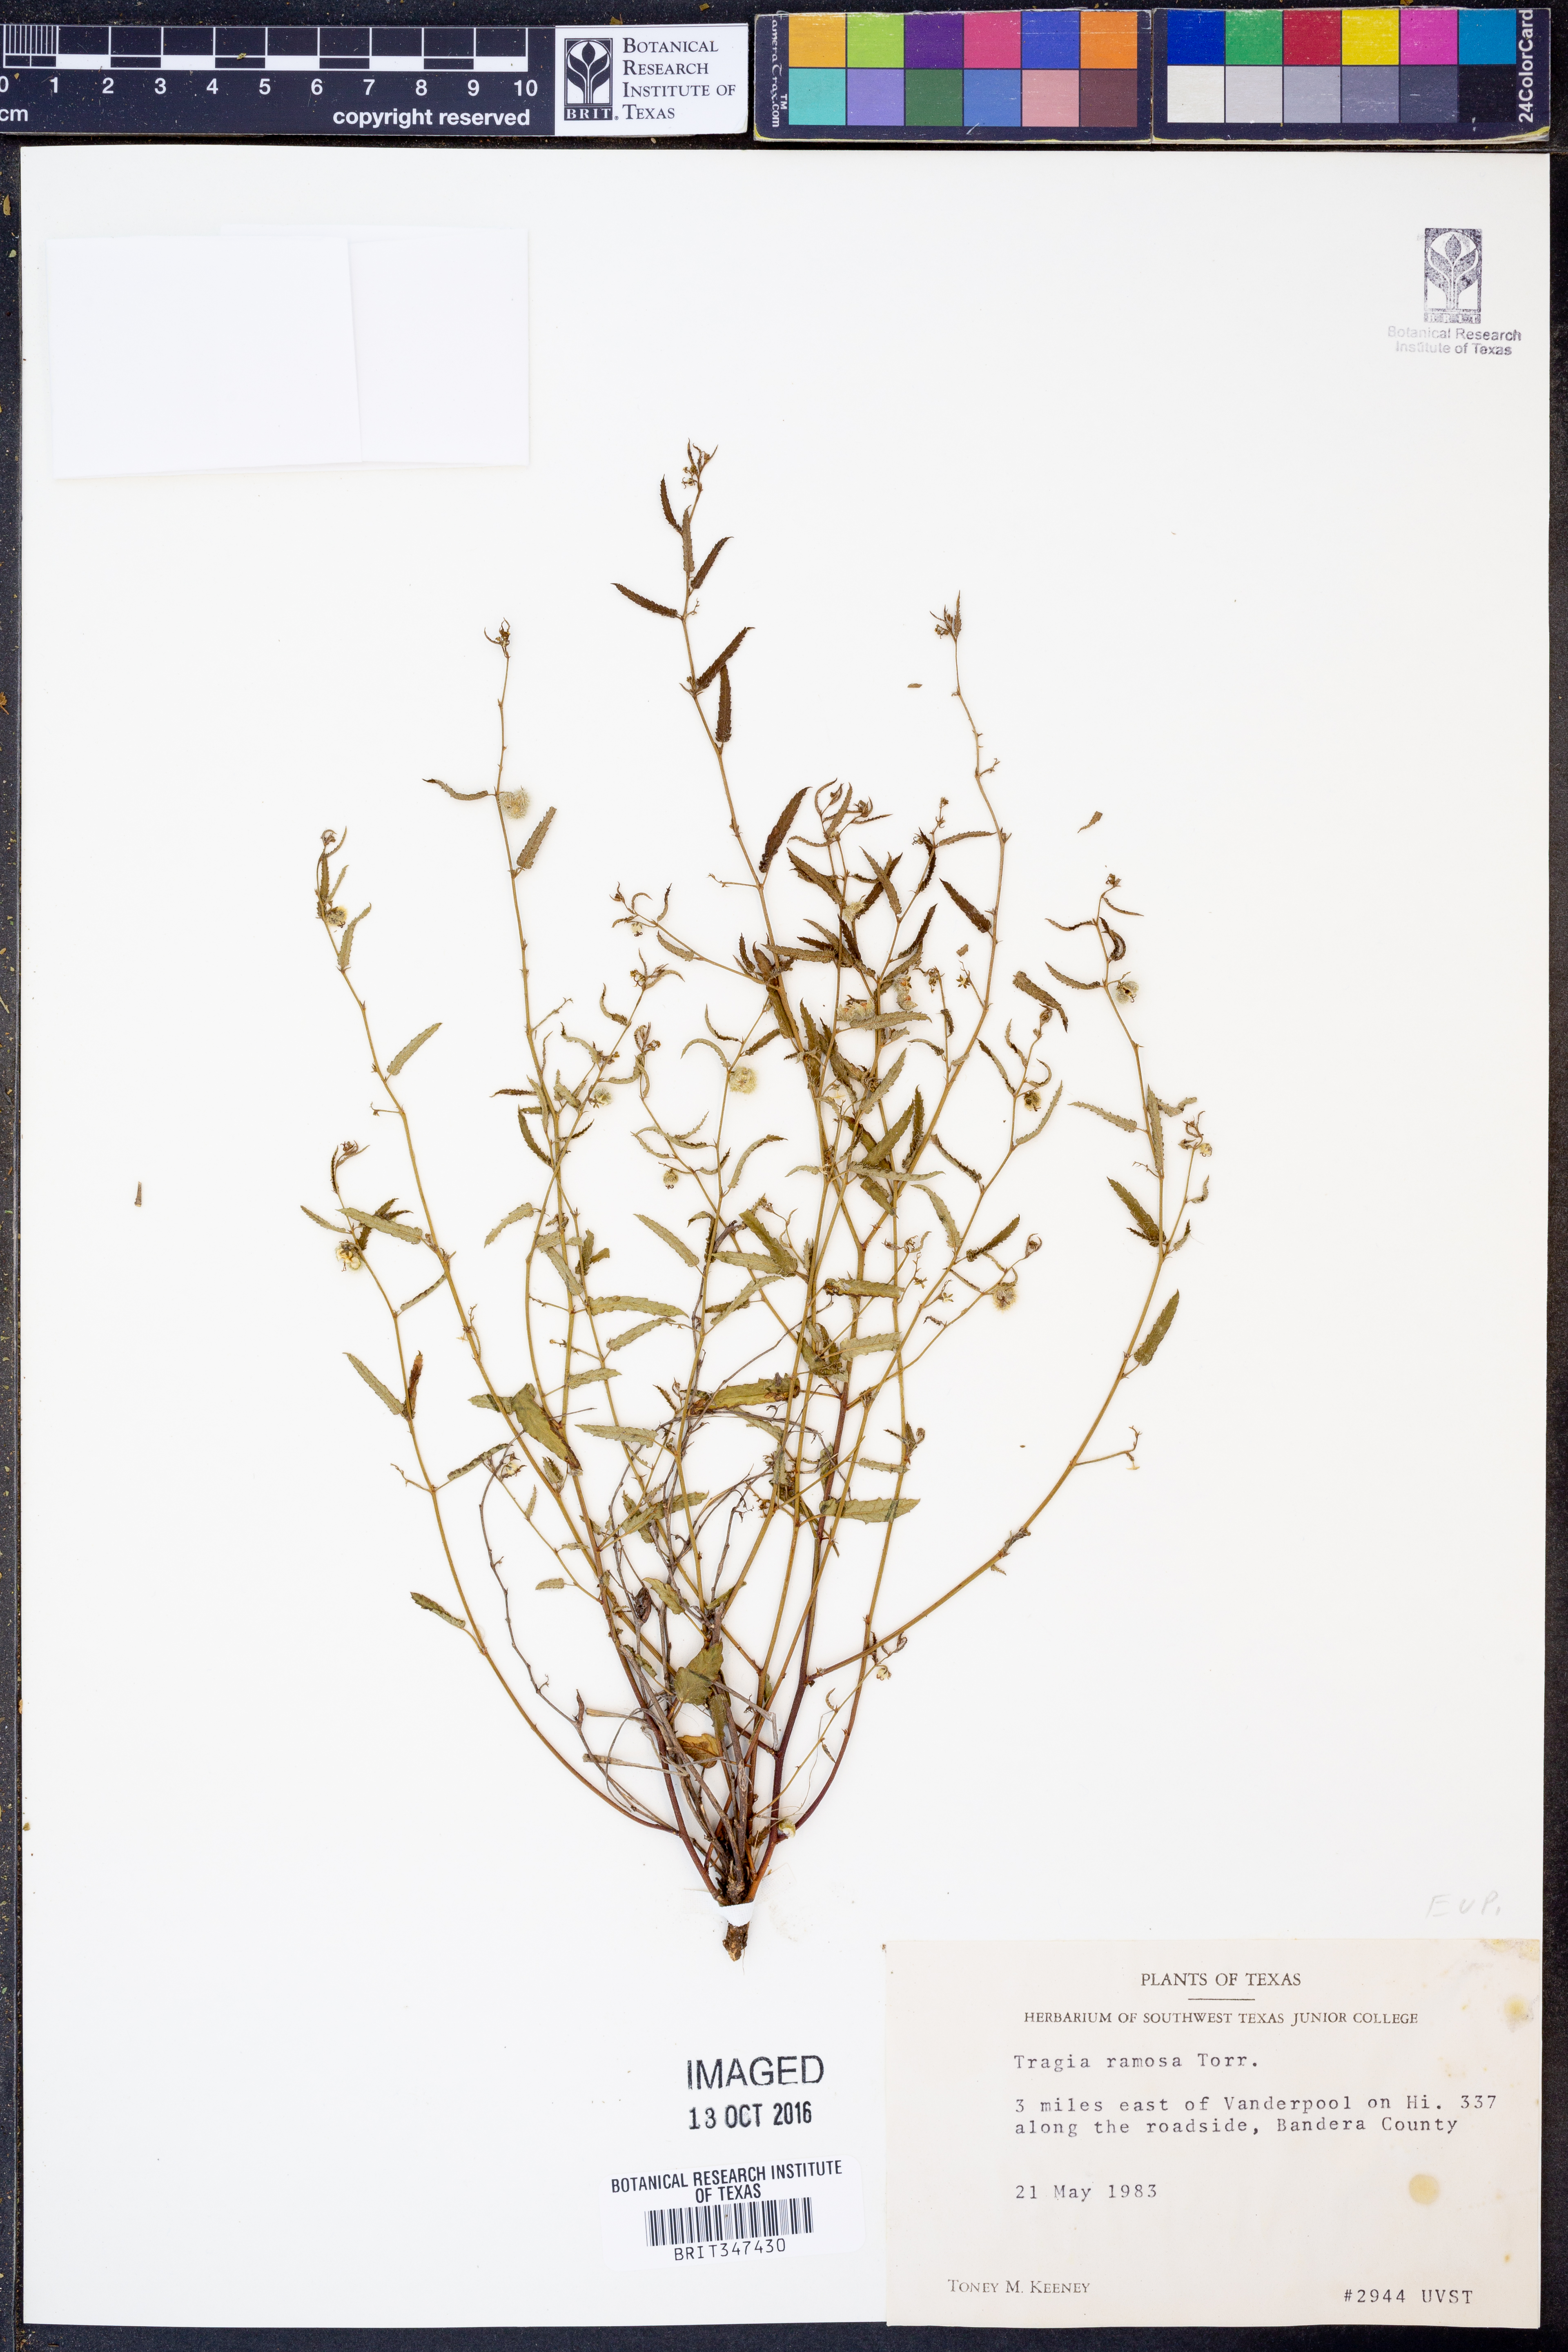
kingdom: Plantae
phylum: Tracheophyta
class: Magnoliopsida
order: Malpighiales
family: Euphorbiaceae
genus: Tragia
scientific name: Tragia ramosa
